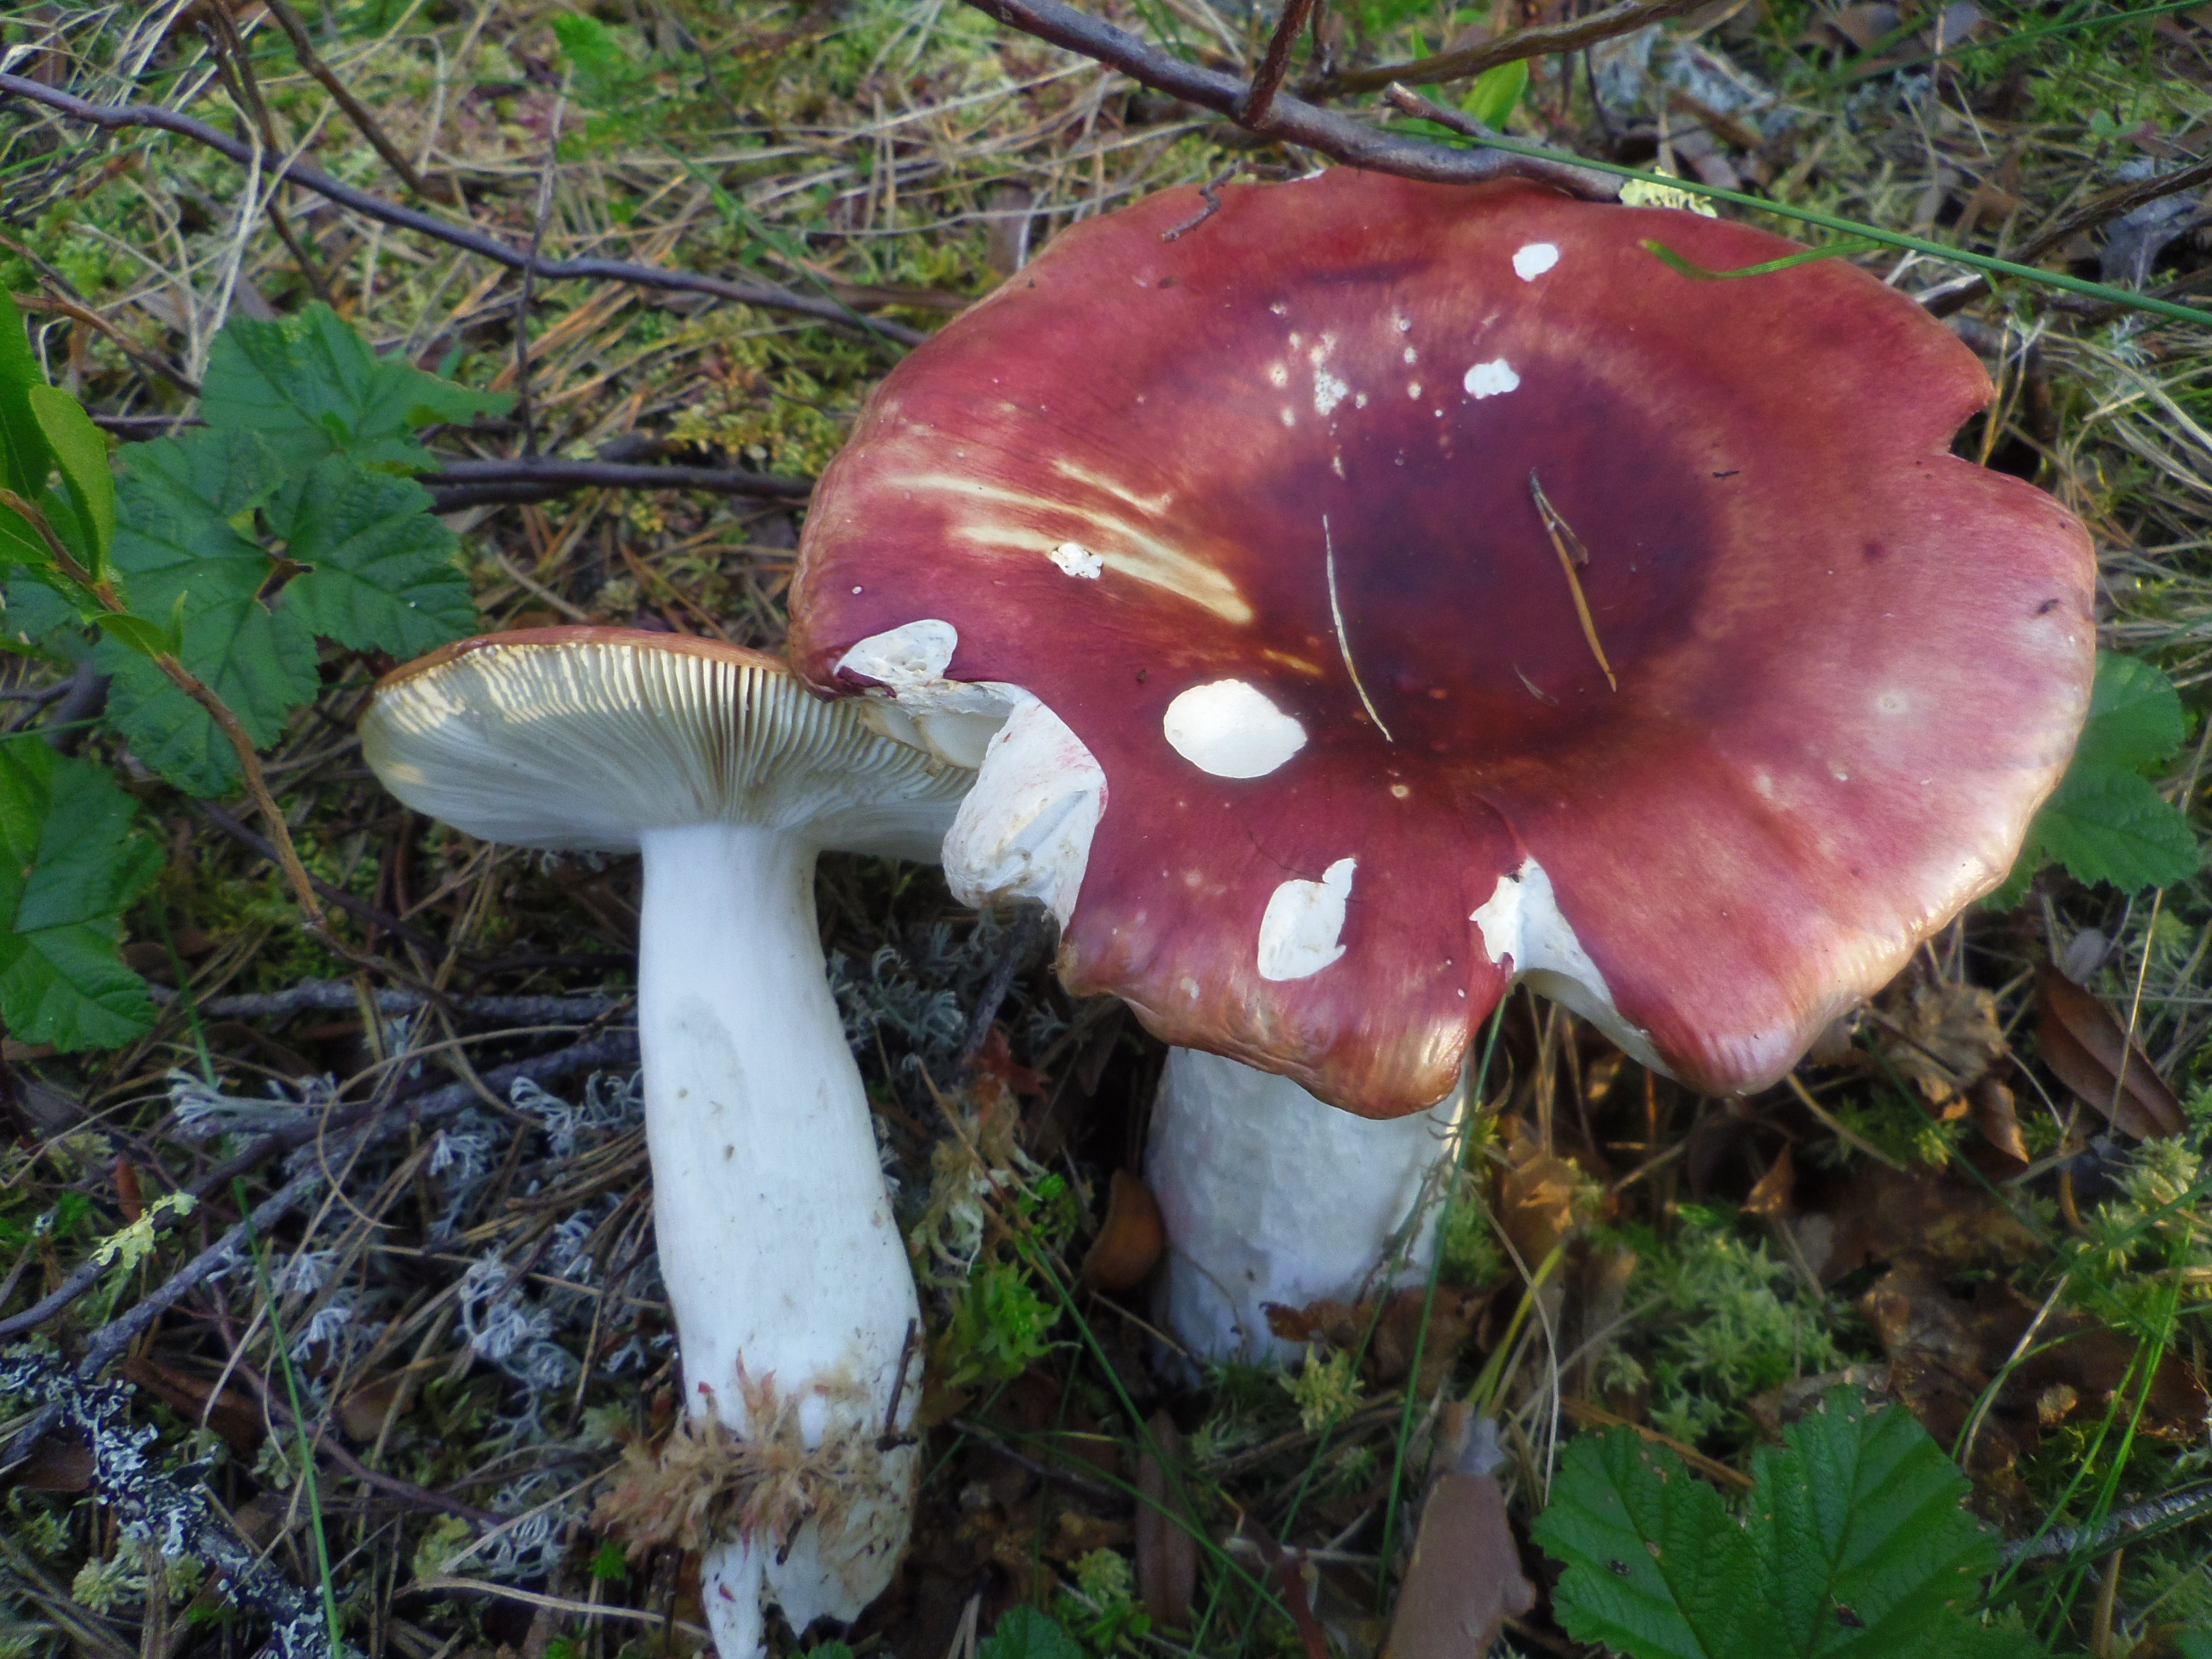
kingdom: Fungi
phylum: Basidiomycota
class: Agaricomycetes
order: Russulales
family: Russulaceae
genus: Russula
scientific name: Russula paludosa
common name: Hintapink
